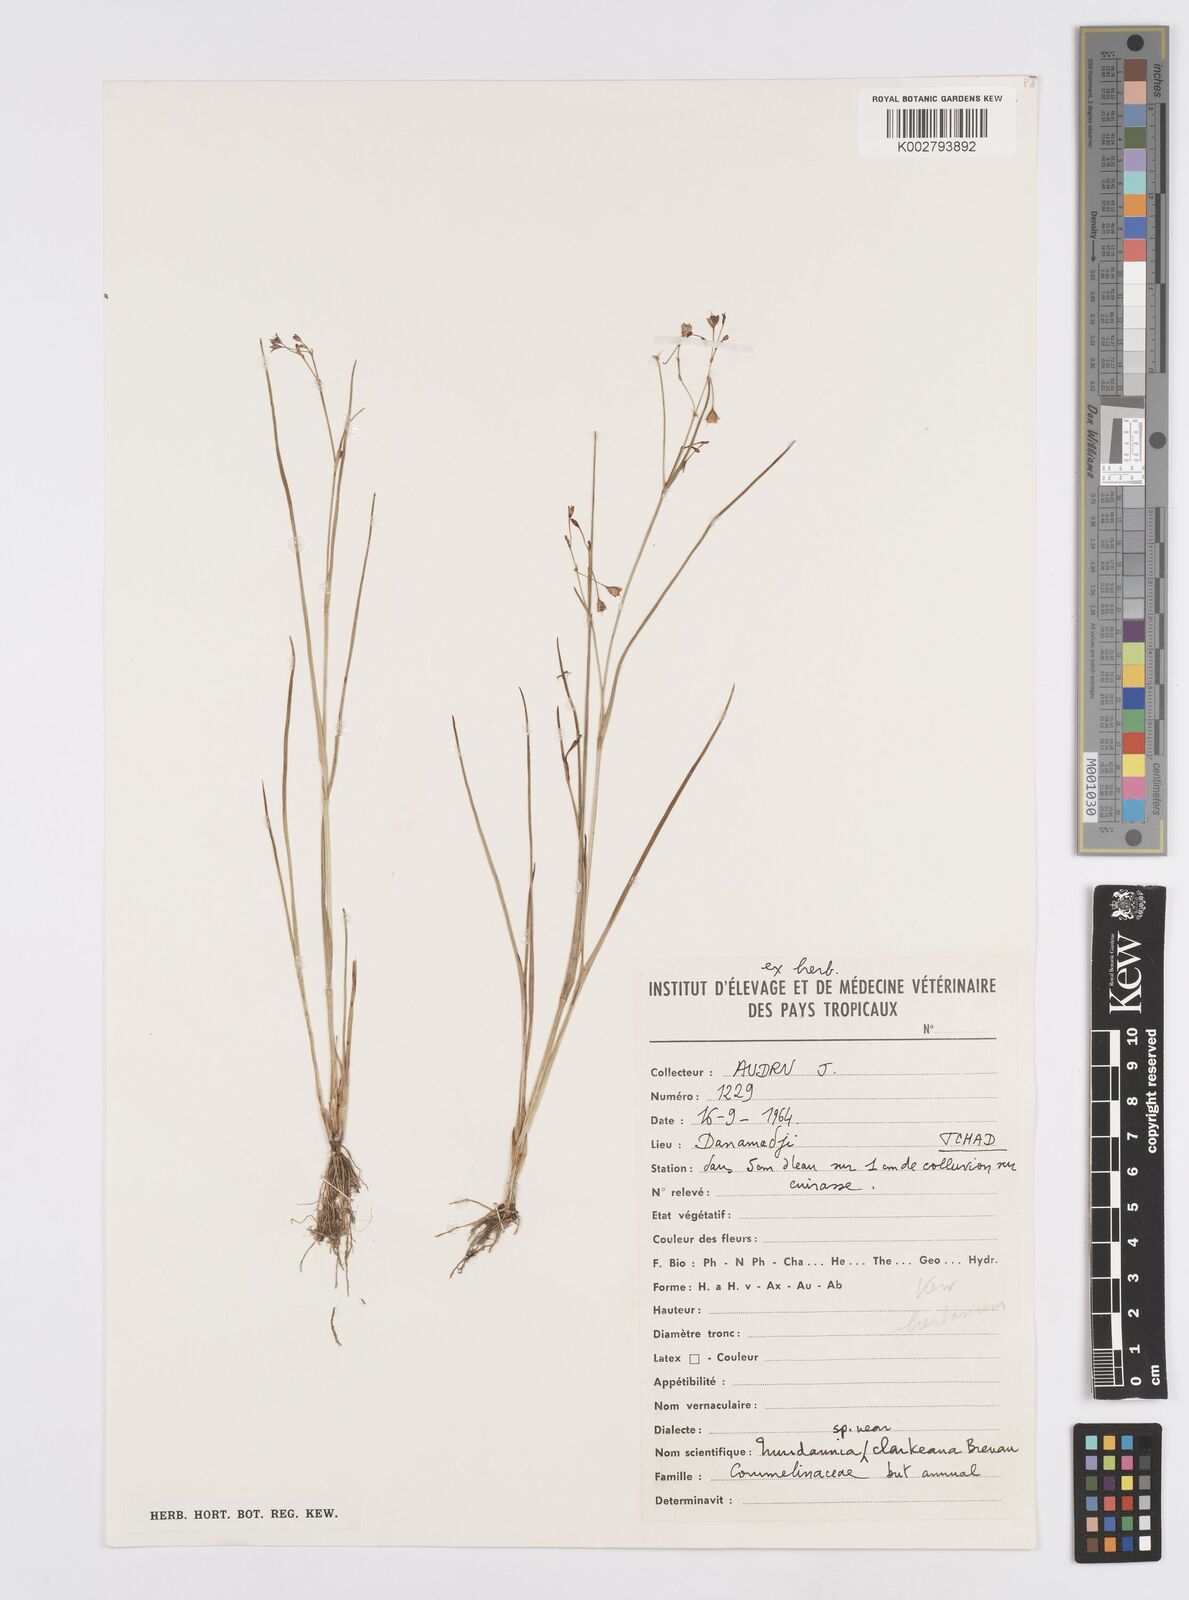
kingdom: Plantae
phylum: Tracheophyta
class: Liliopsida
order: Commelinales
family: Commelinaceae
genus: Murdannia
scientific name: Murdannia
